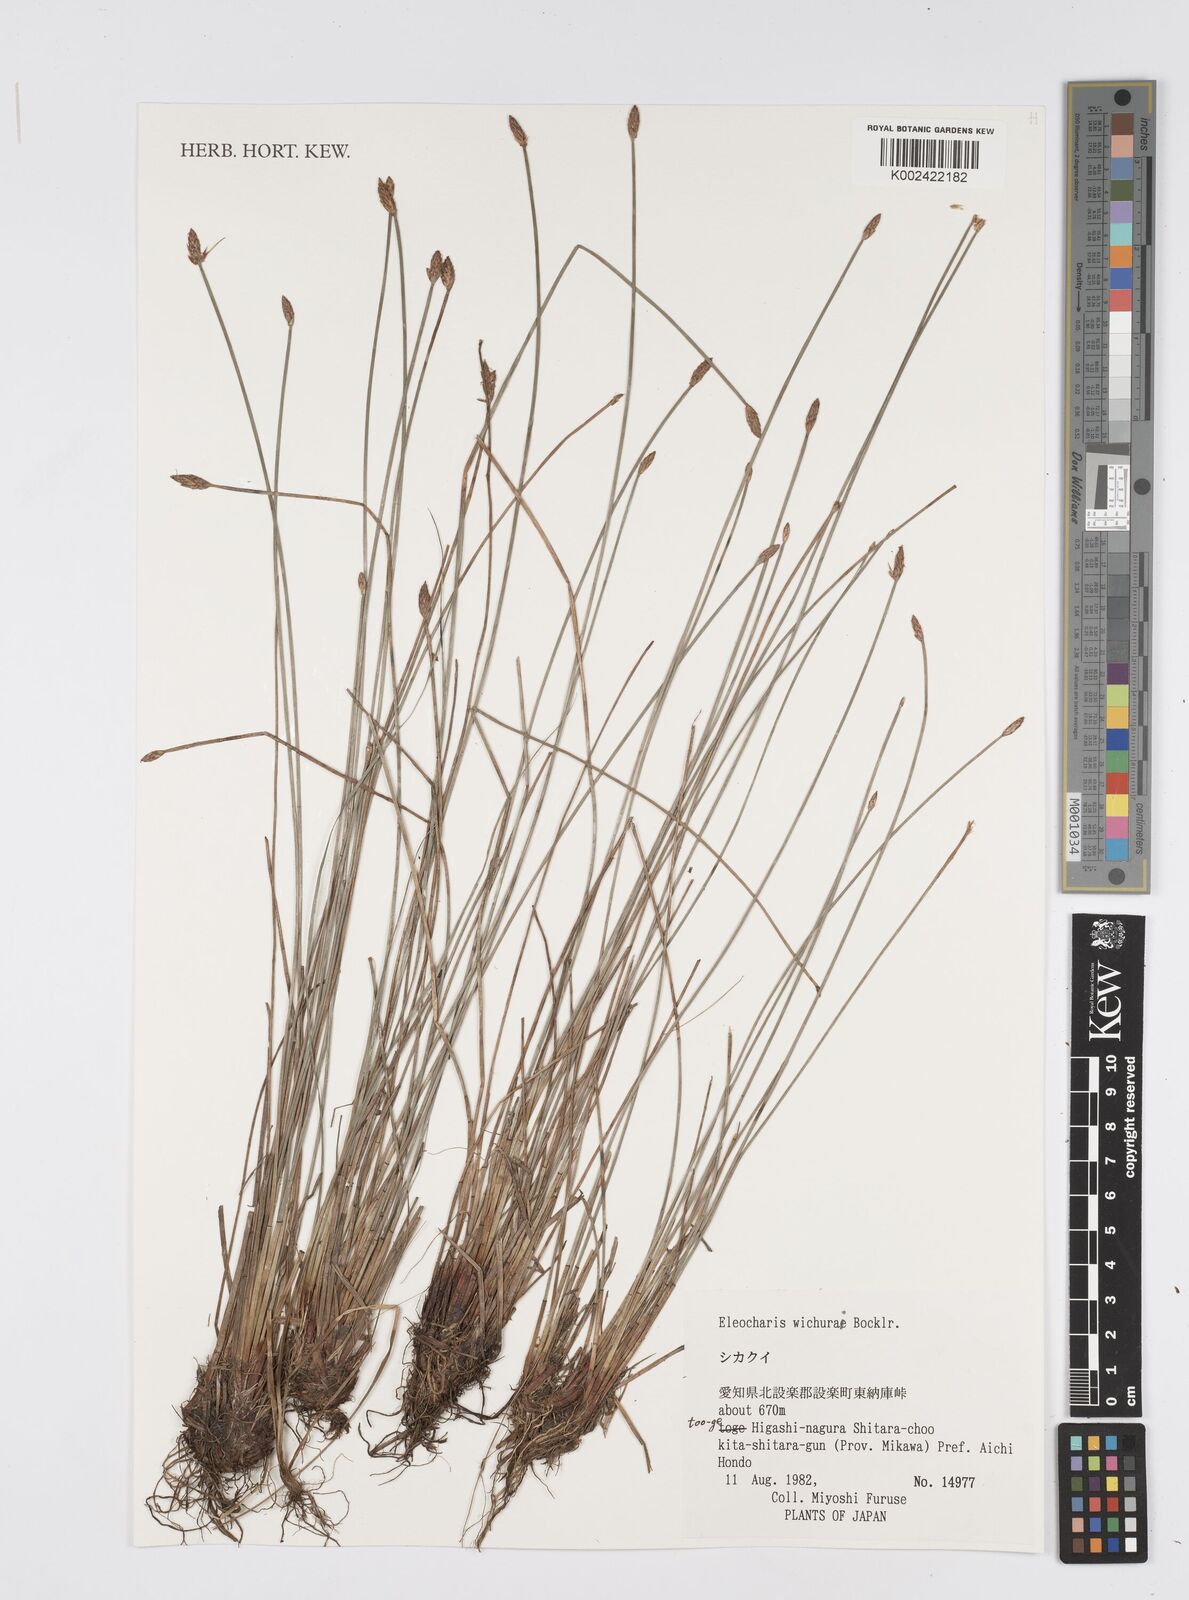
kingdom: Plantae
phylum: Tracheophyta
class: Liliopsida
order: Poales
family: Cyperaceae
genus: Eleocharis
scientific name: Eleocharis tetraquetra
